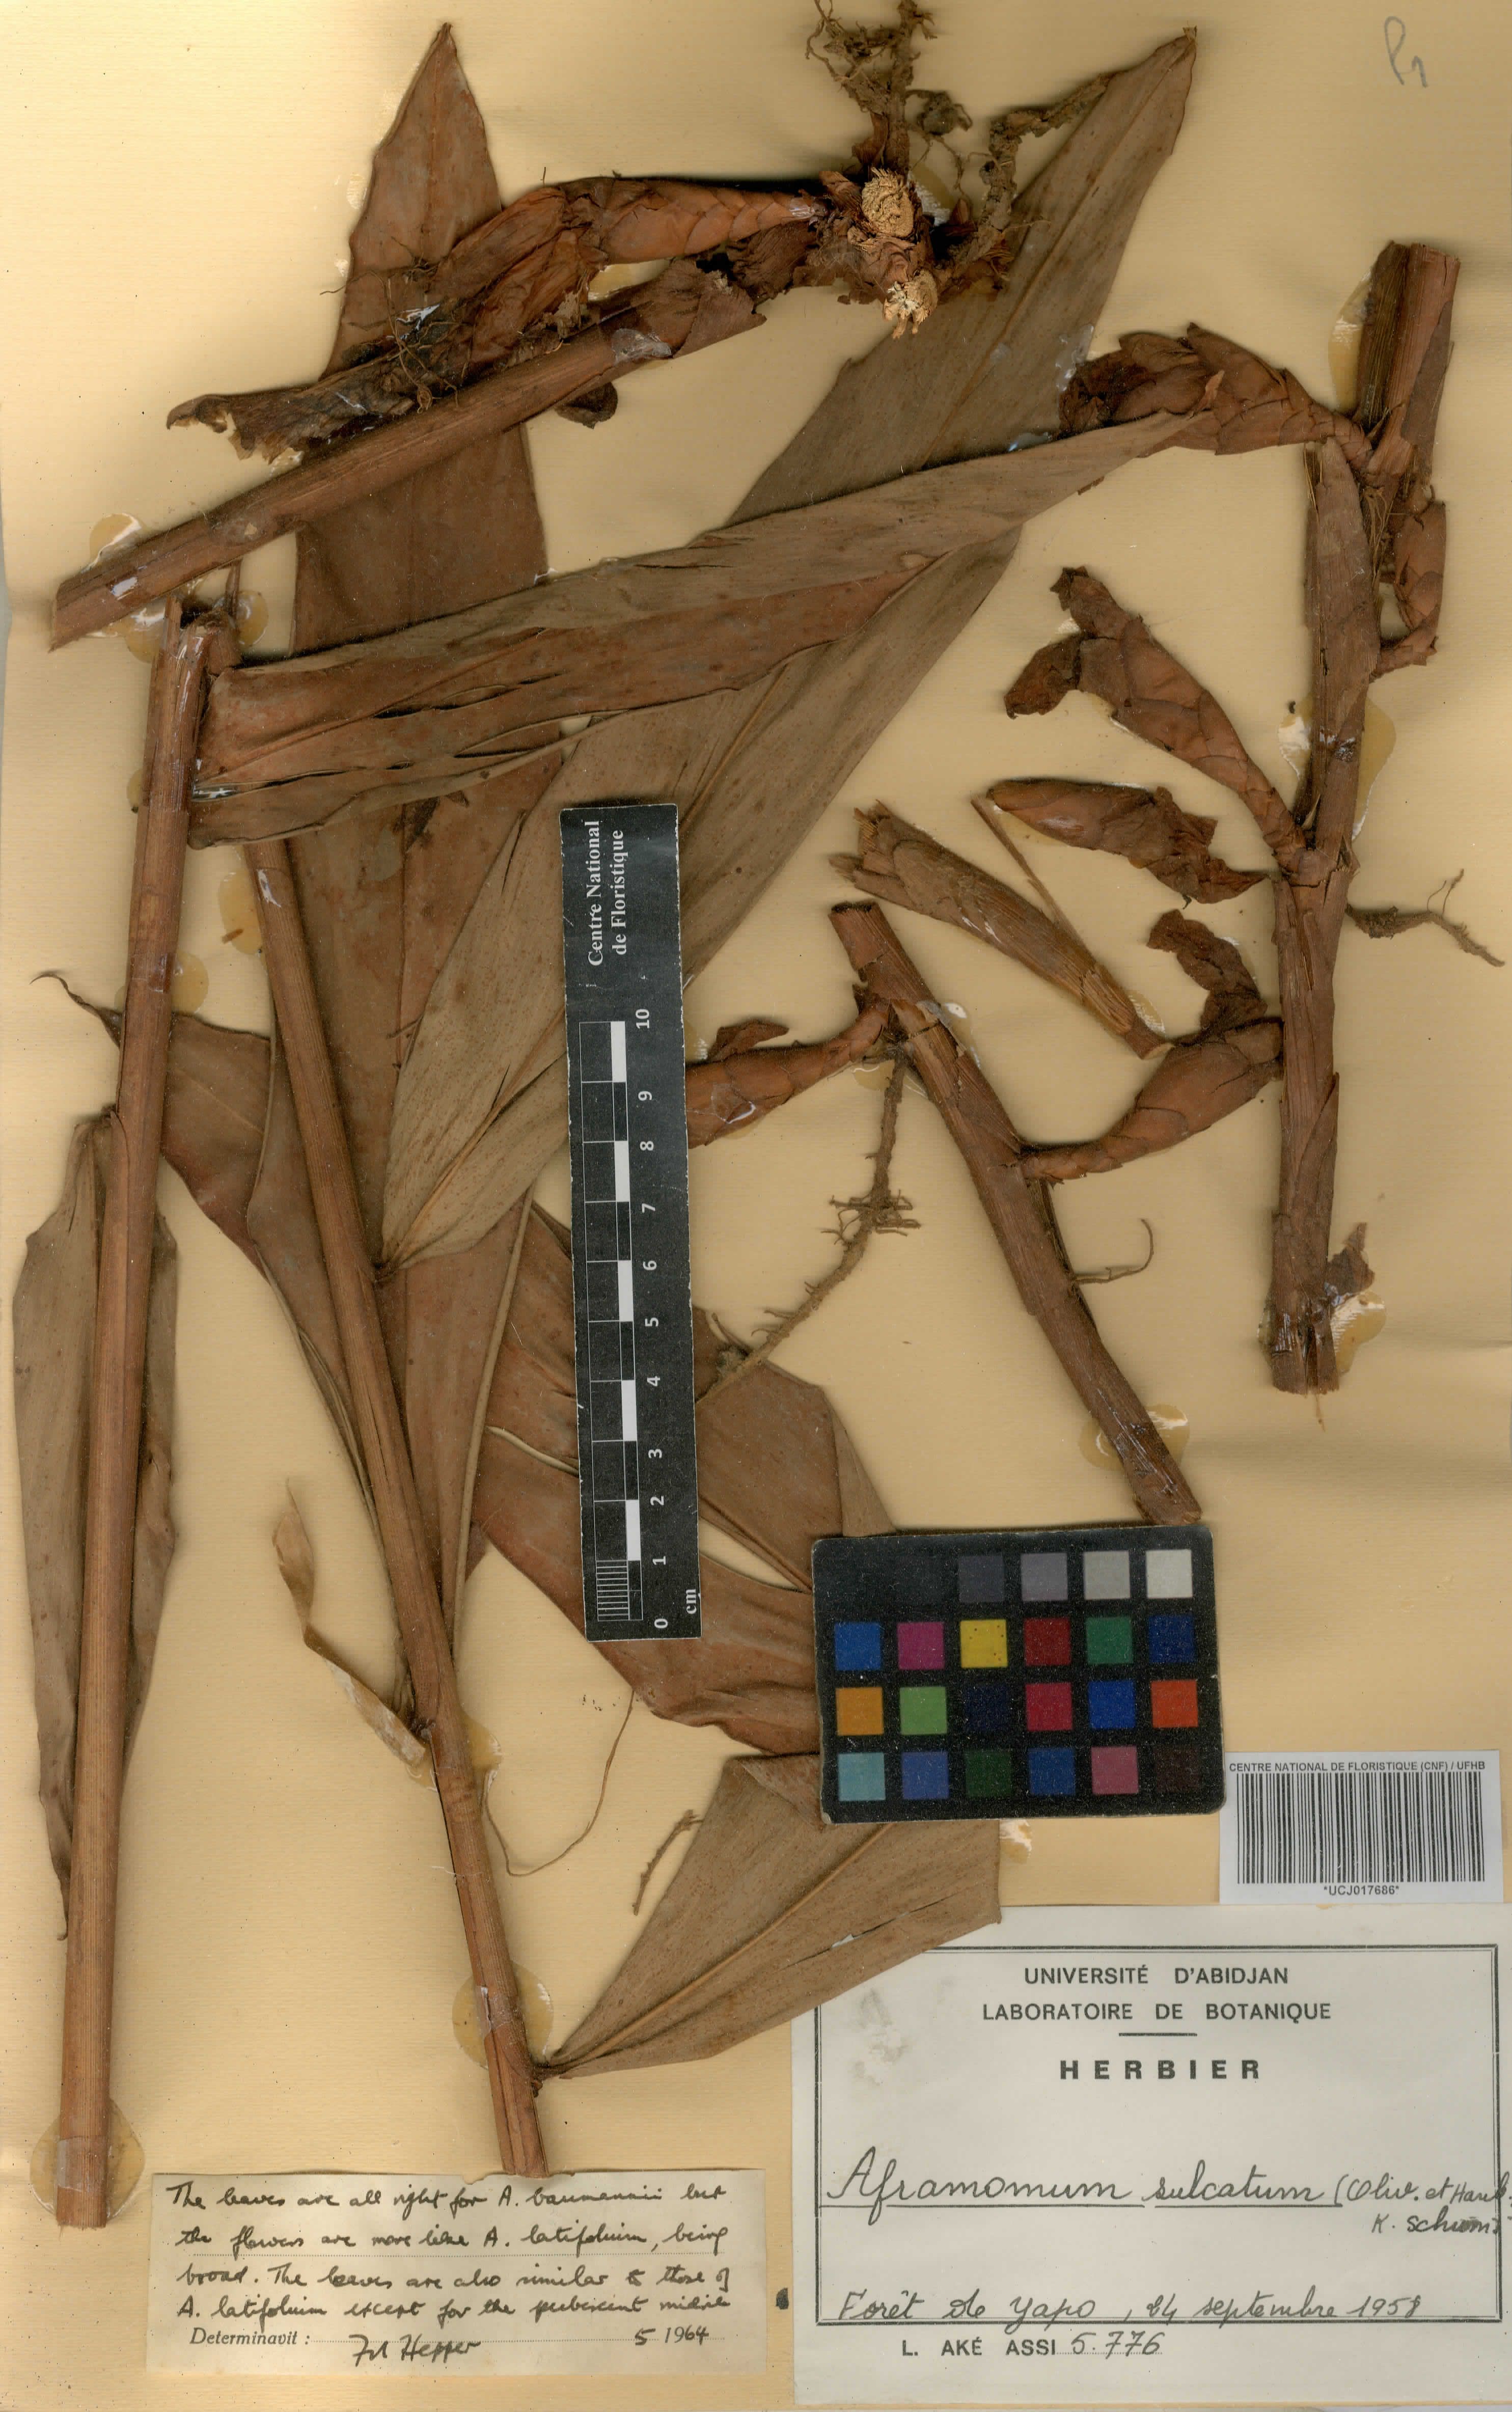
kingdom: Plantae
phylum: Tracheophyta
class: Liliopsida
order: Zingiberales
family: Zingiberaceae
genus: Aframomum
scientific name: Aframomum sulcatum
